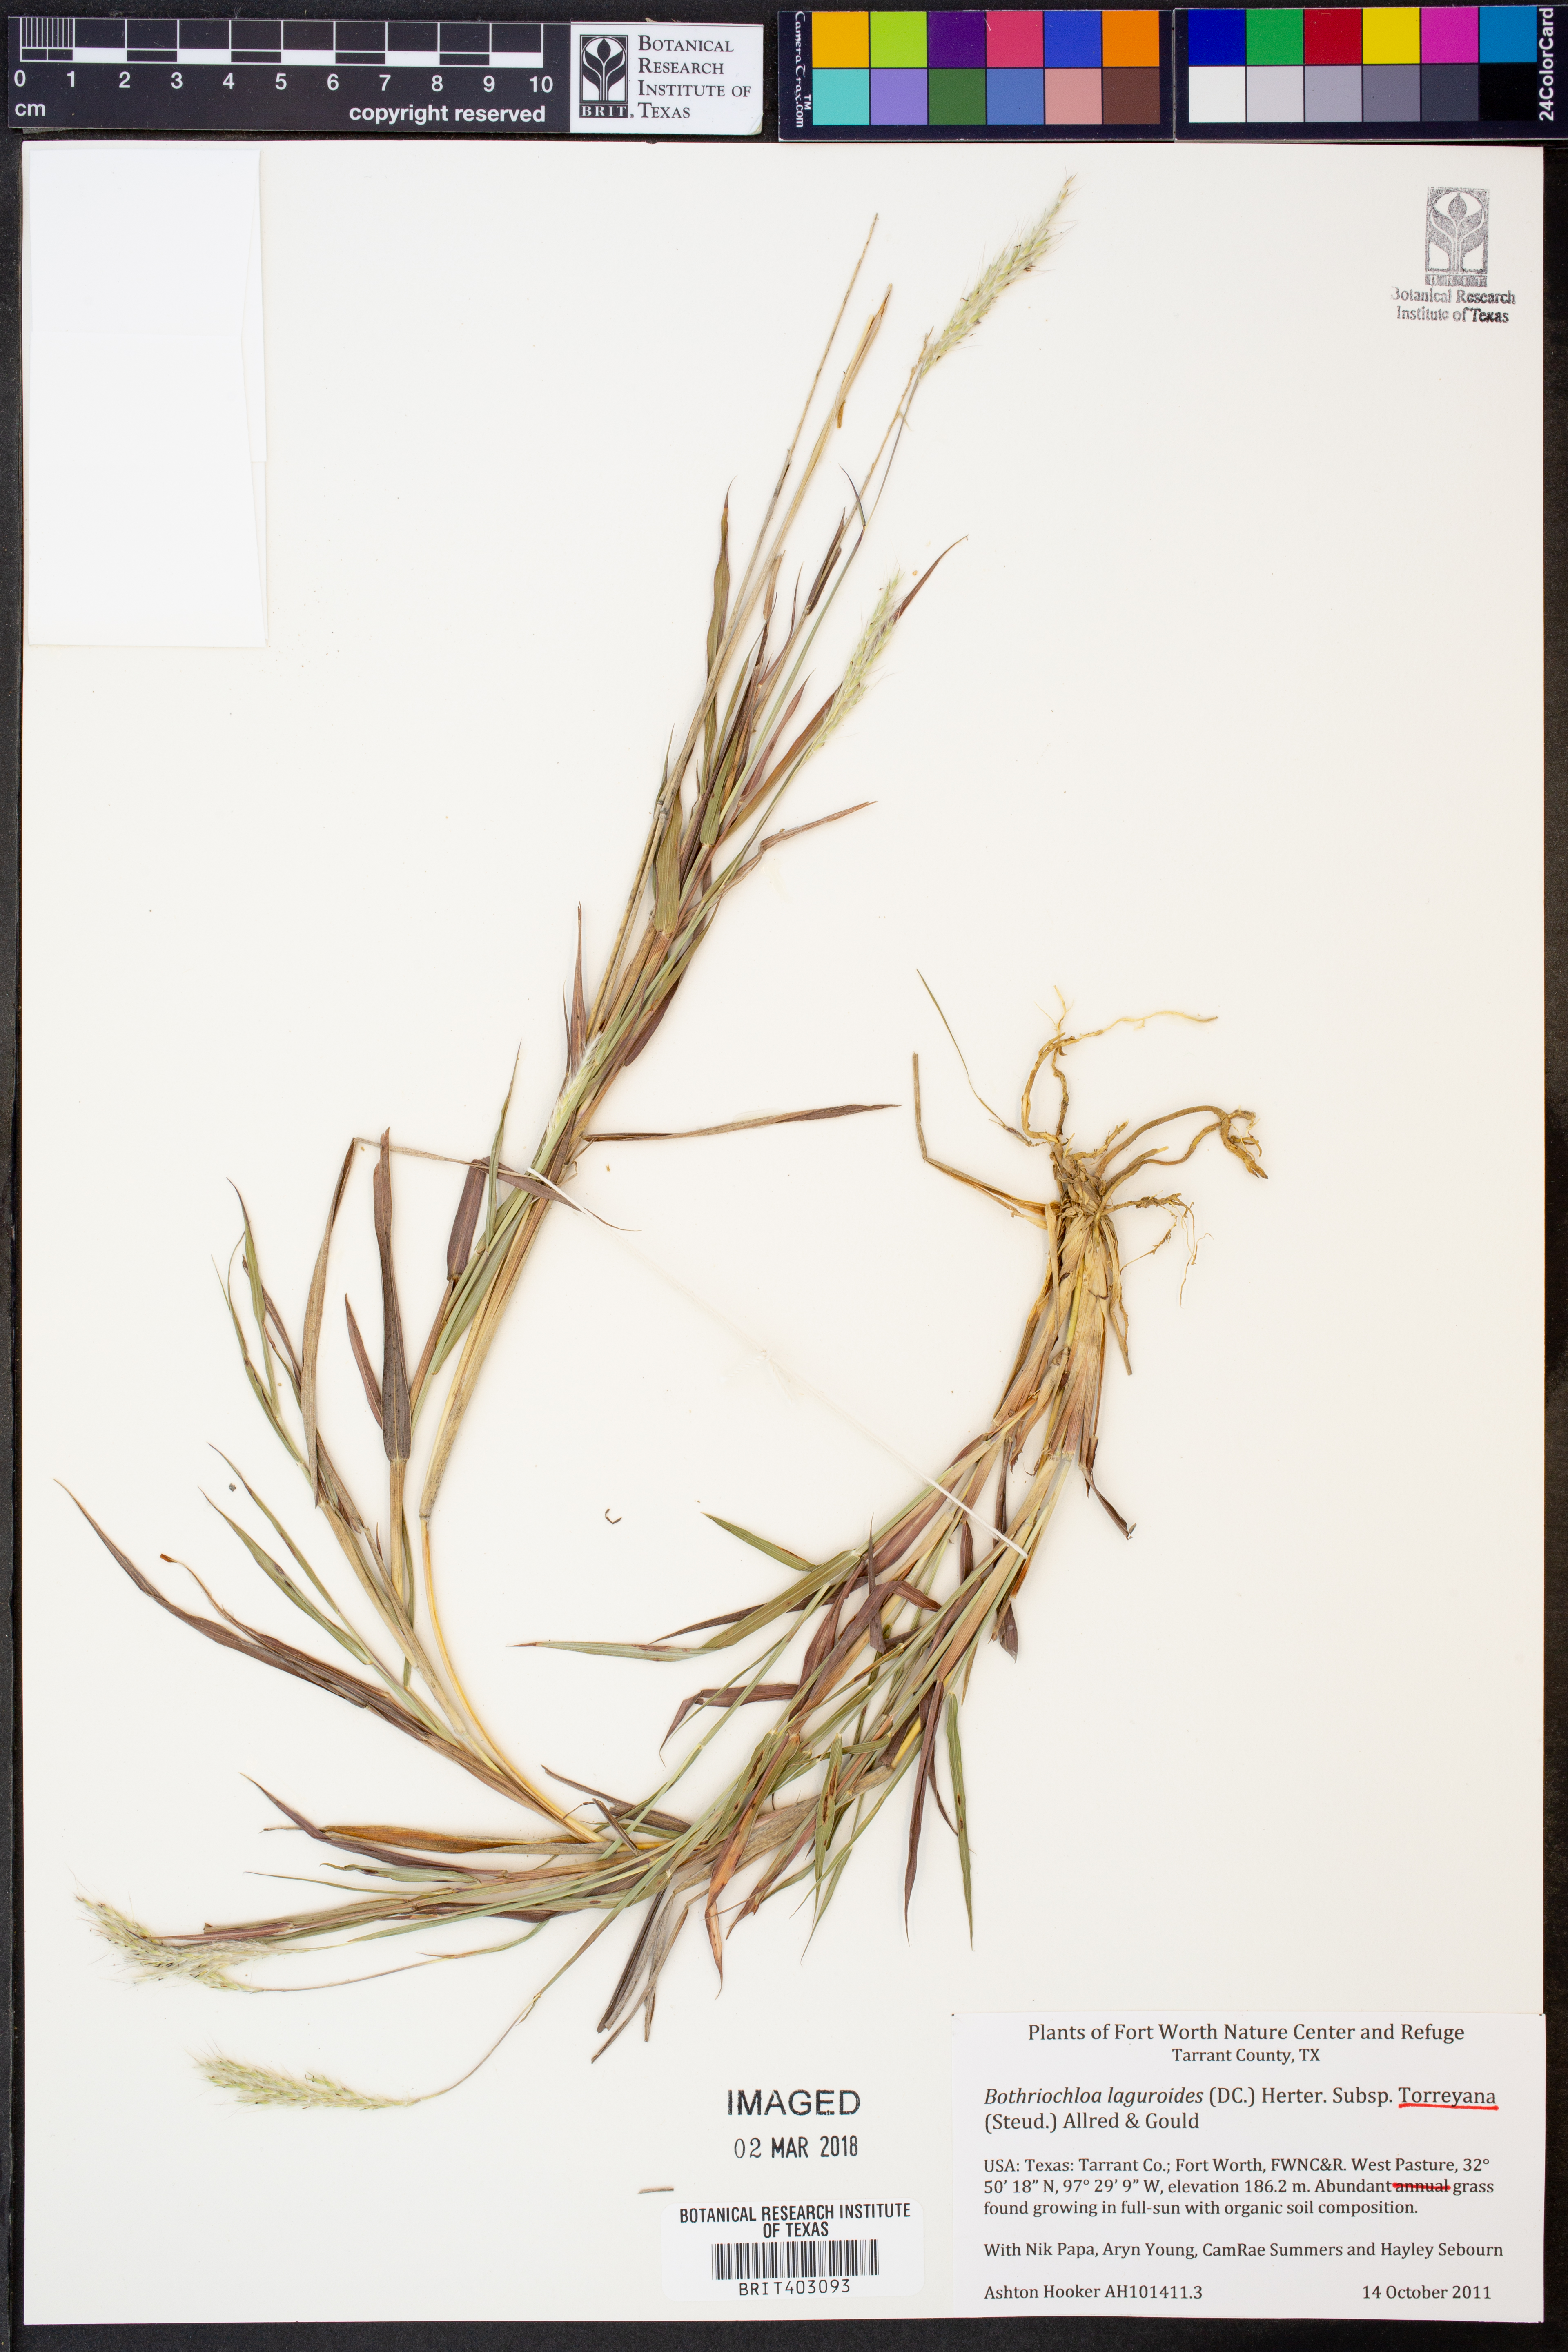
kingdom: Plantae
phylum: Tracheophyta
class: Liliopsida
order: Poales
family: Poaceae
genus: Bothriochloa
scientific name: Bothriochloa torreyana
